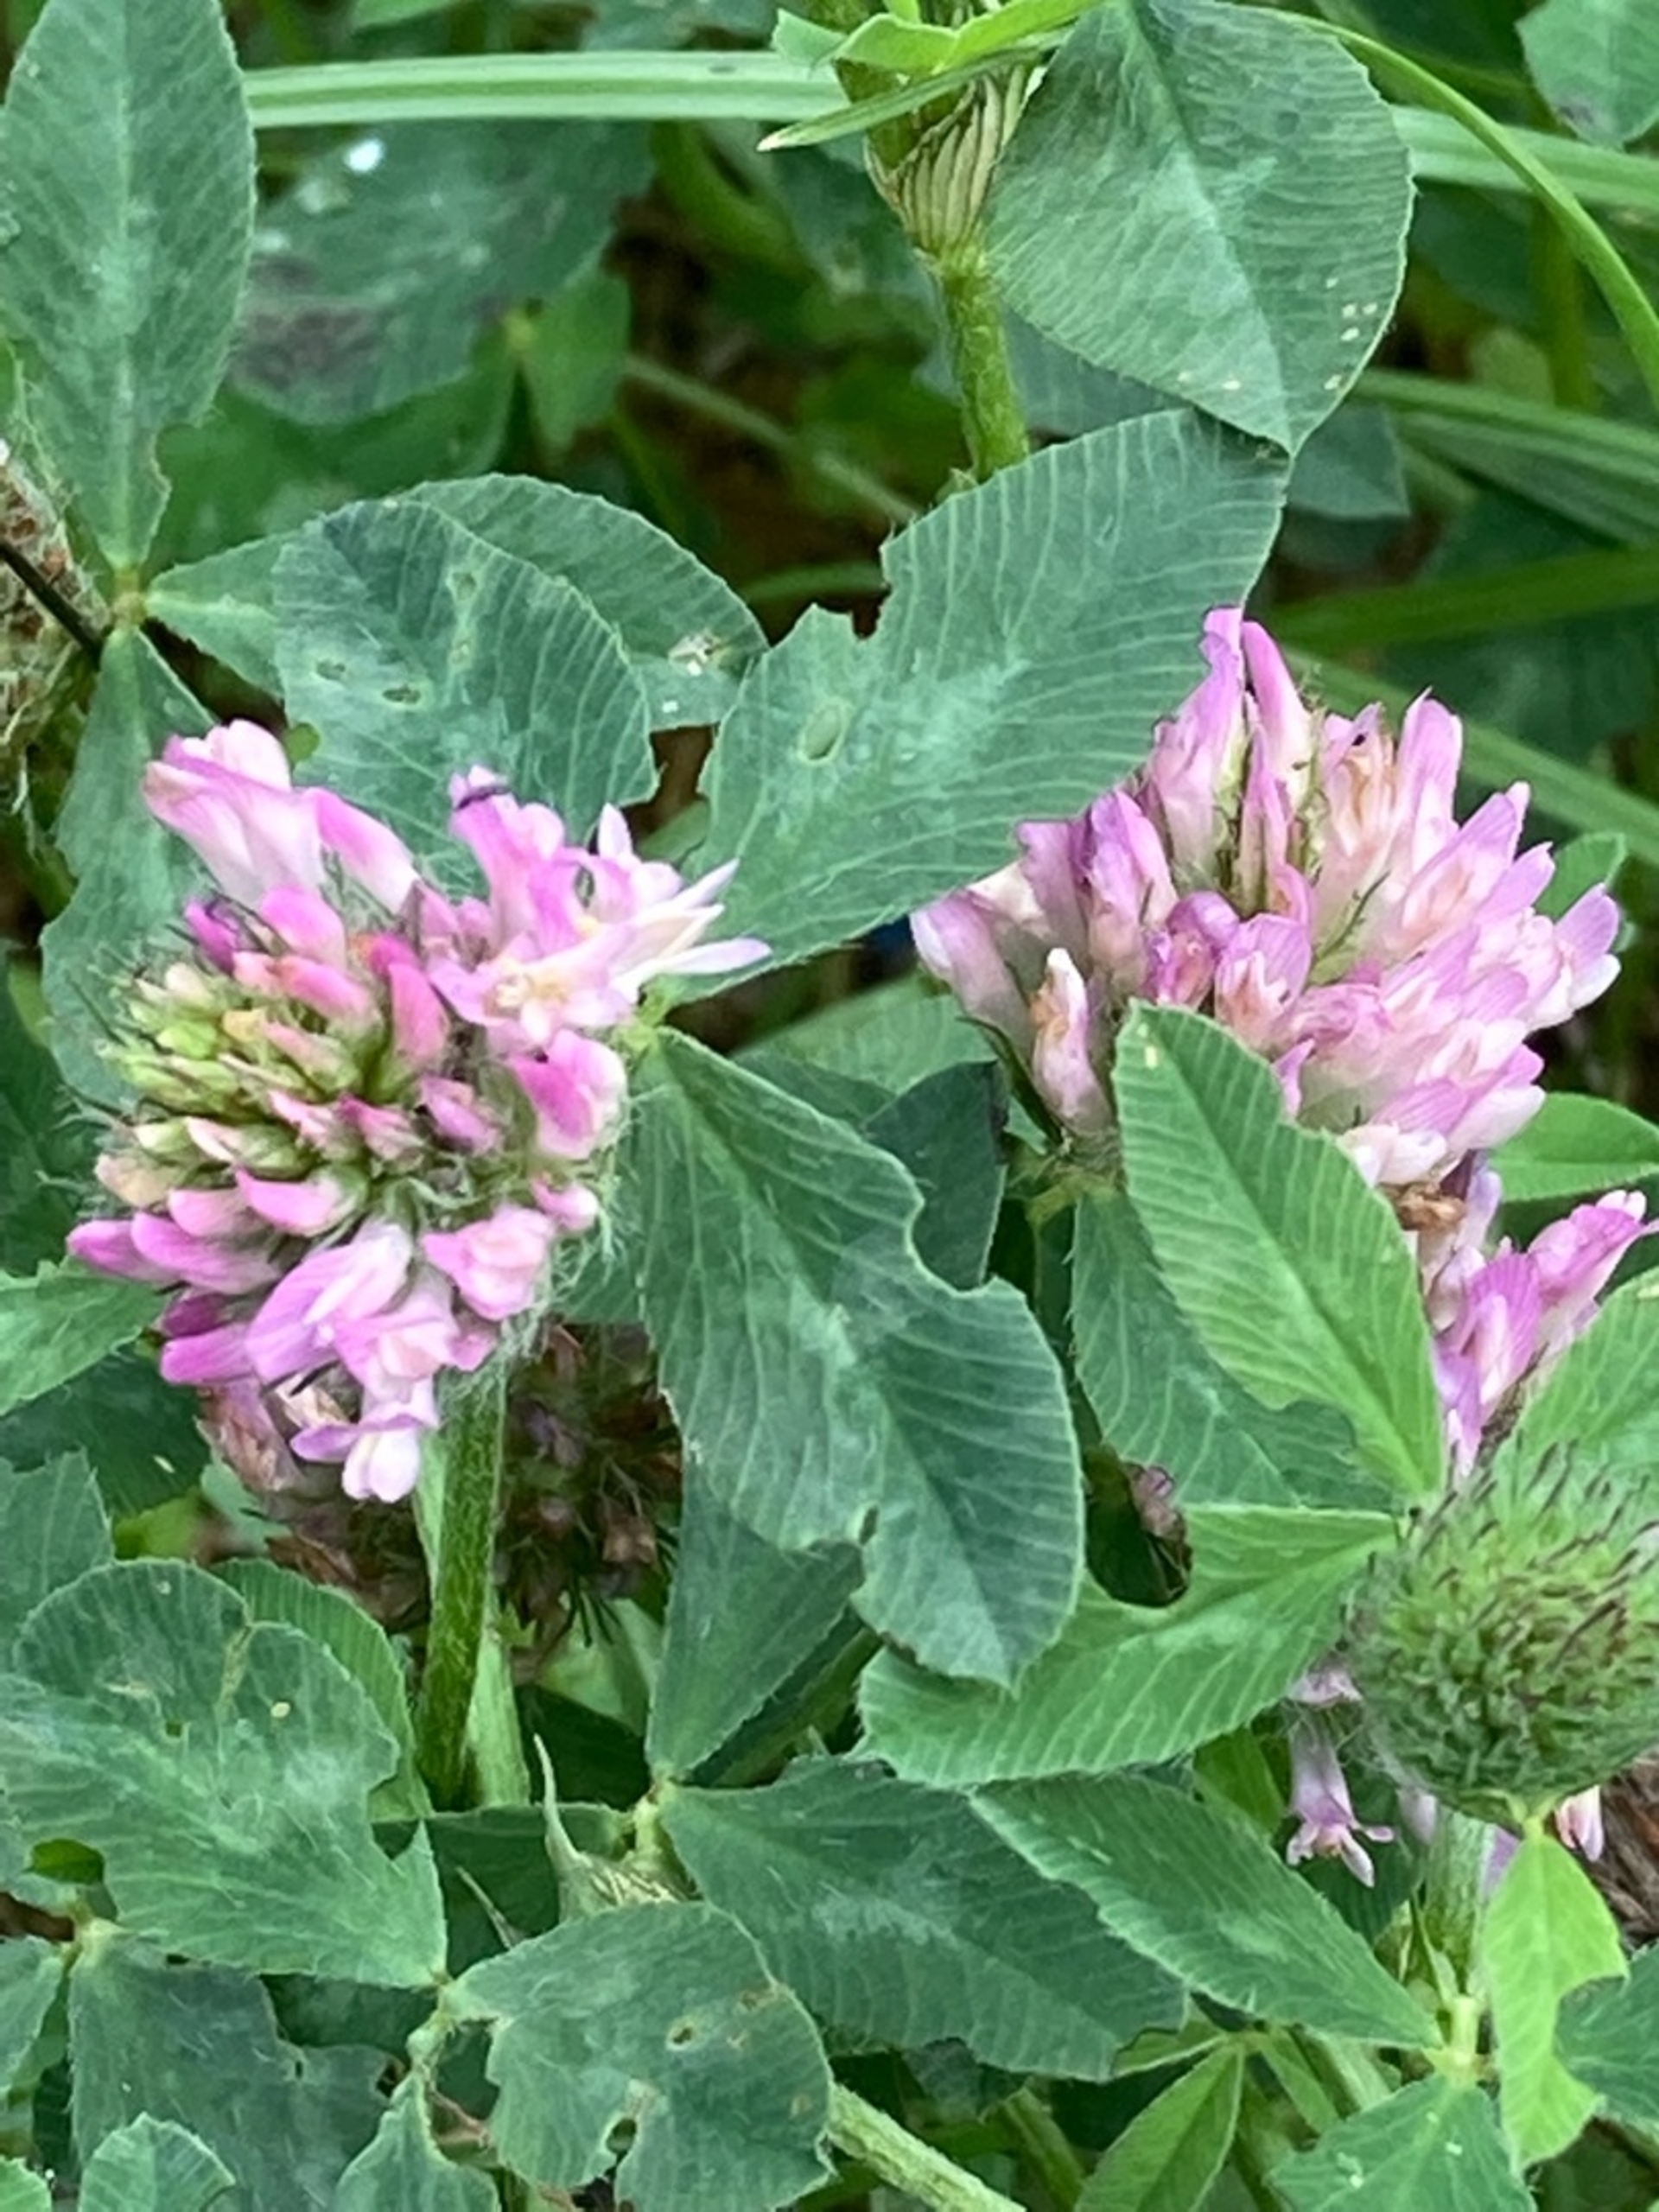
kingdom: Plantae
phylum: Tracheophyta
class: Magnoliopsida
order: Fabales
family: Fabaceae
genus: Trifolium
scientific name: Trifolium pratense
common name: Rød-kløver
